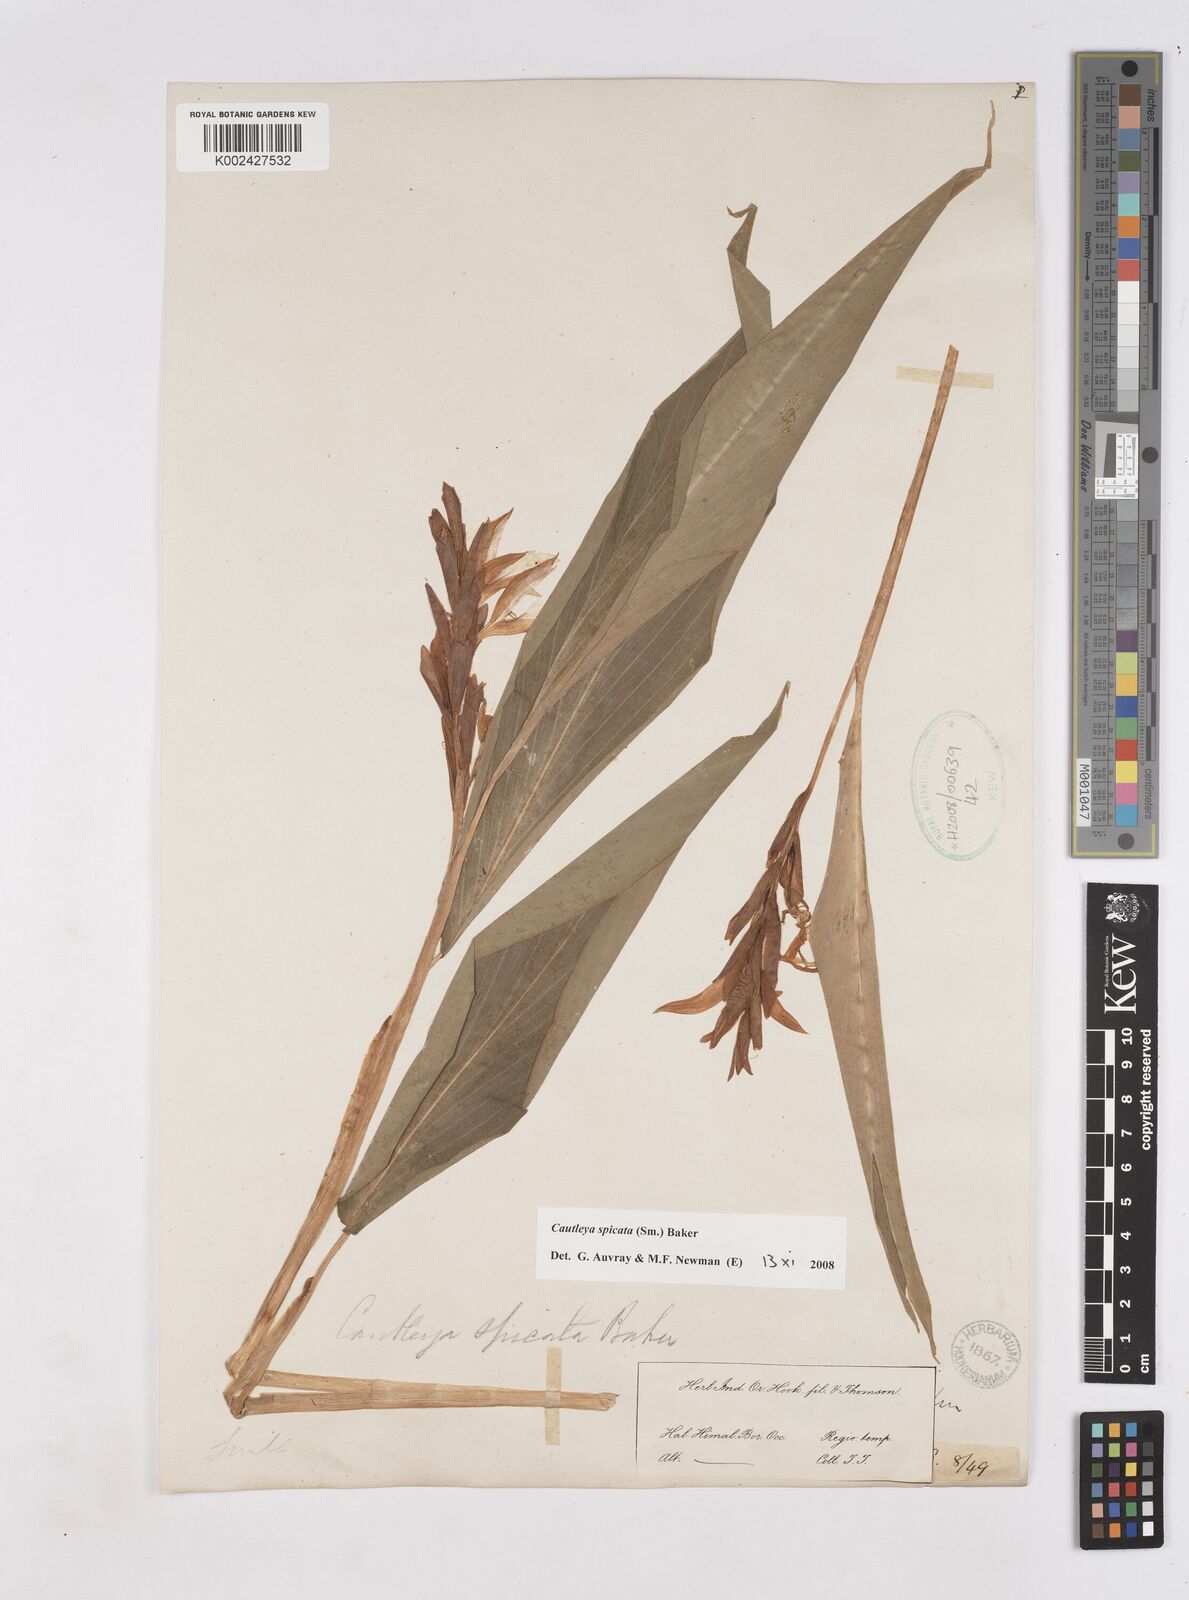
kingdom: Plantae
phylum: Tracheophyta
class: Liliopsida
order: Zingiberales
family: Zingiberaceae
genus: Cautleya
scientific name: Cautleya spicata
